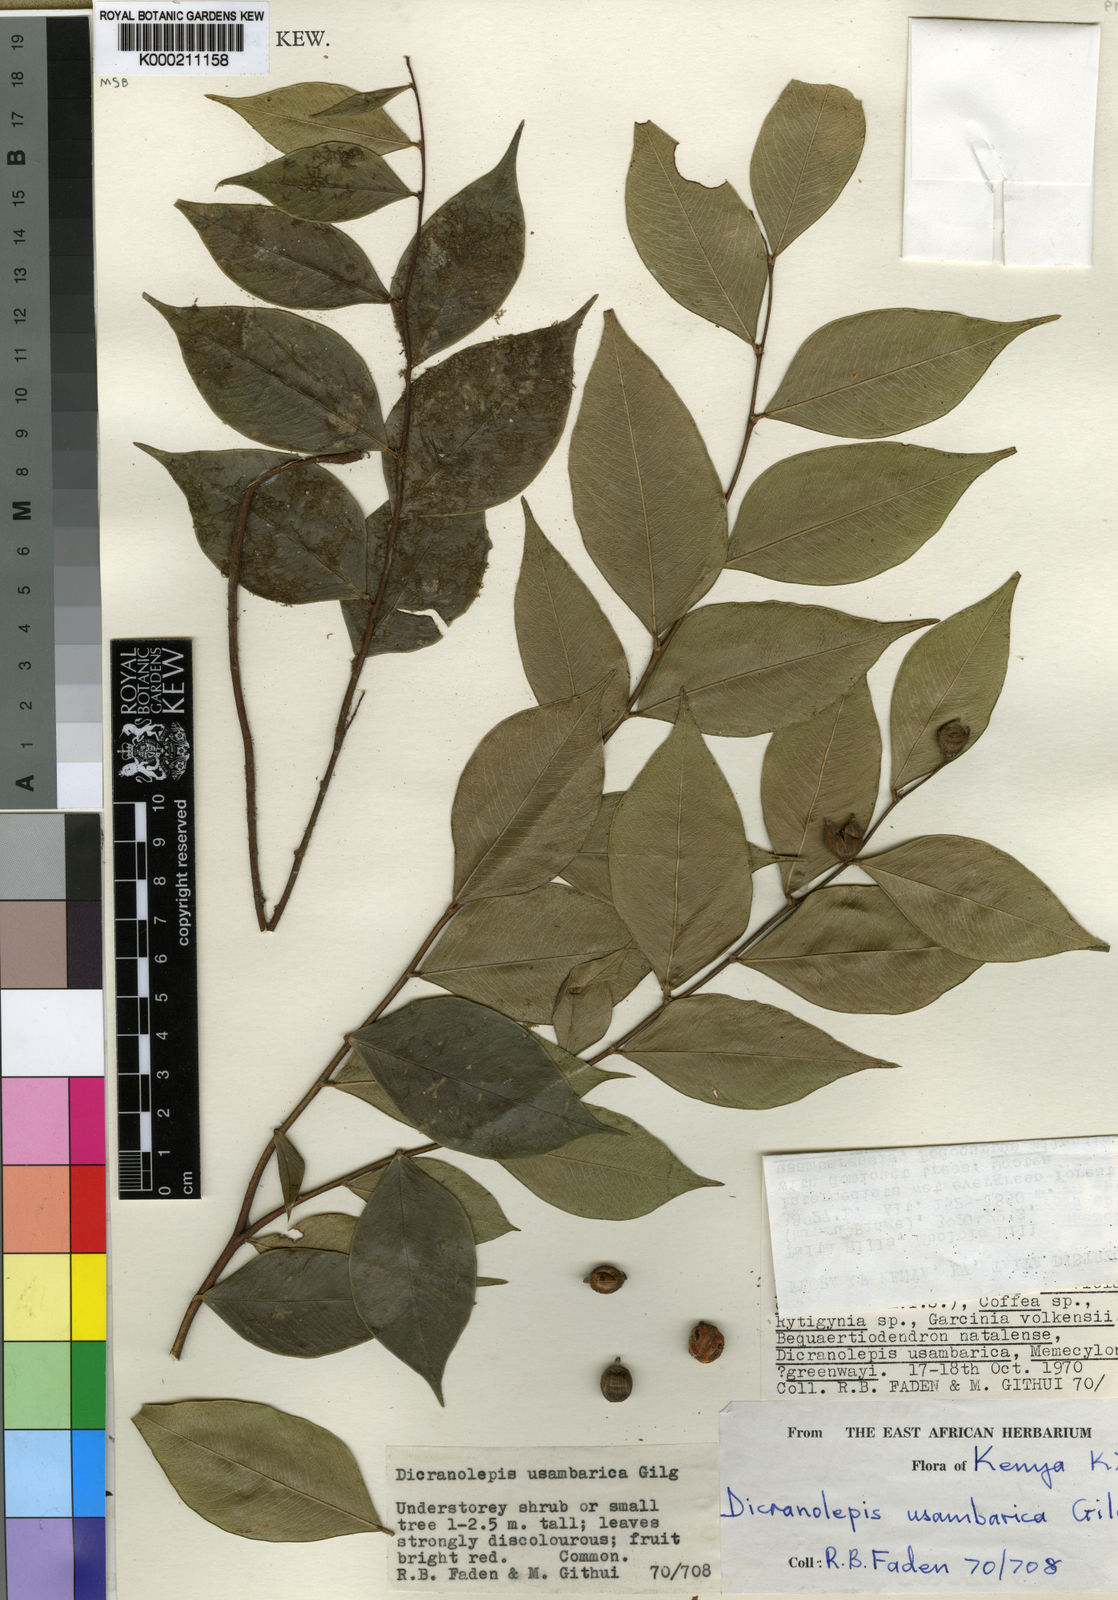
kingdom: Plantae
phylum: Tracheophyta
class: Magnoliopsida
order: Malvales
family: Thymelaeaceae
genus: Dicranolepis
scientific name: Dicranolepis usambarica
